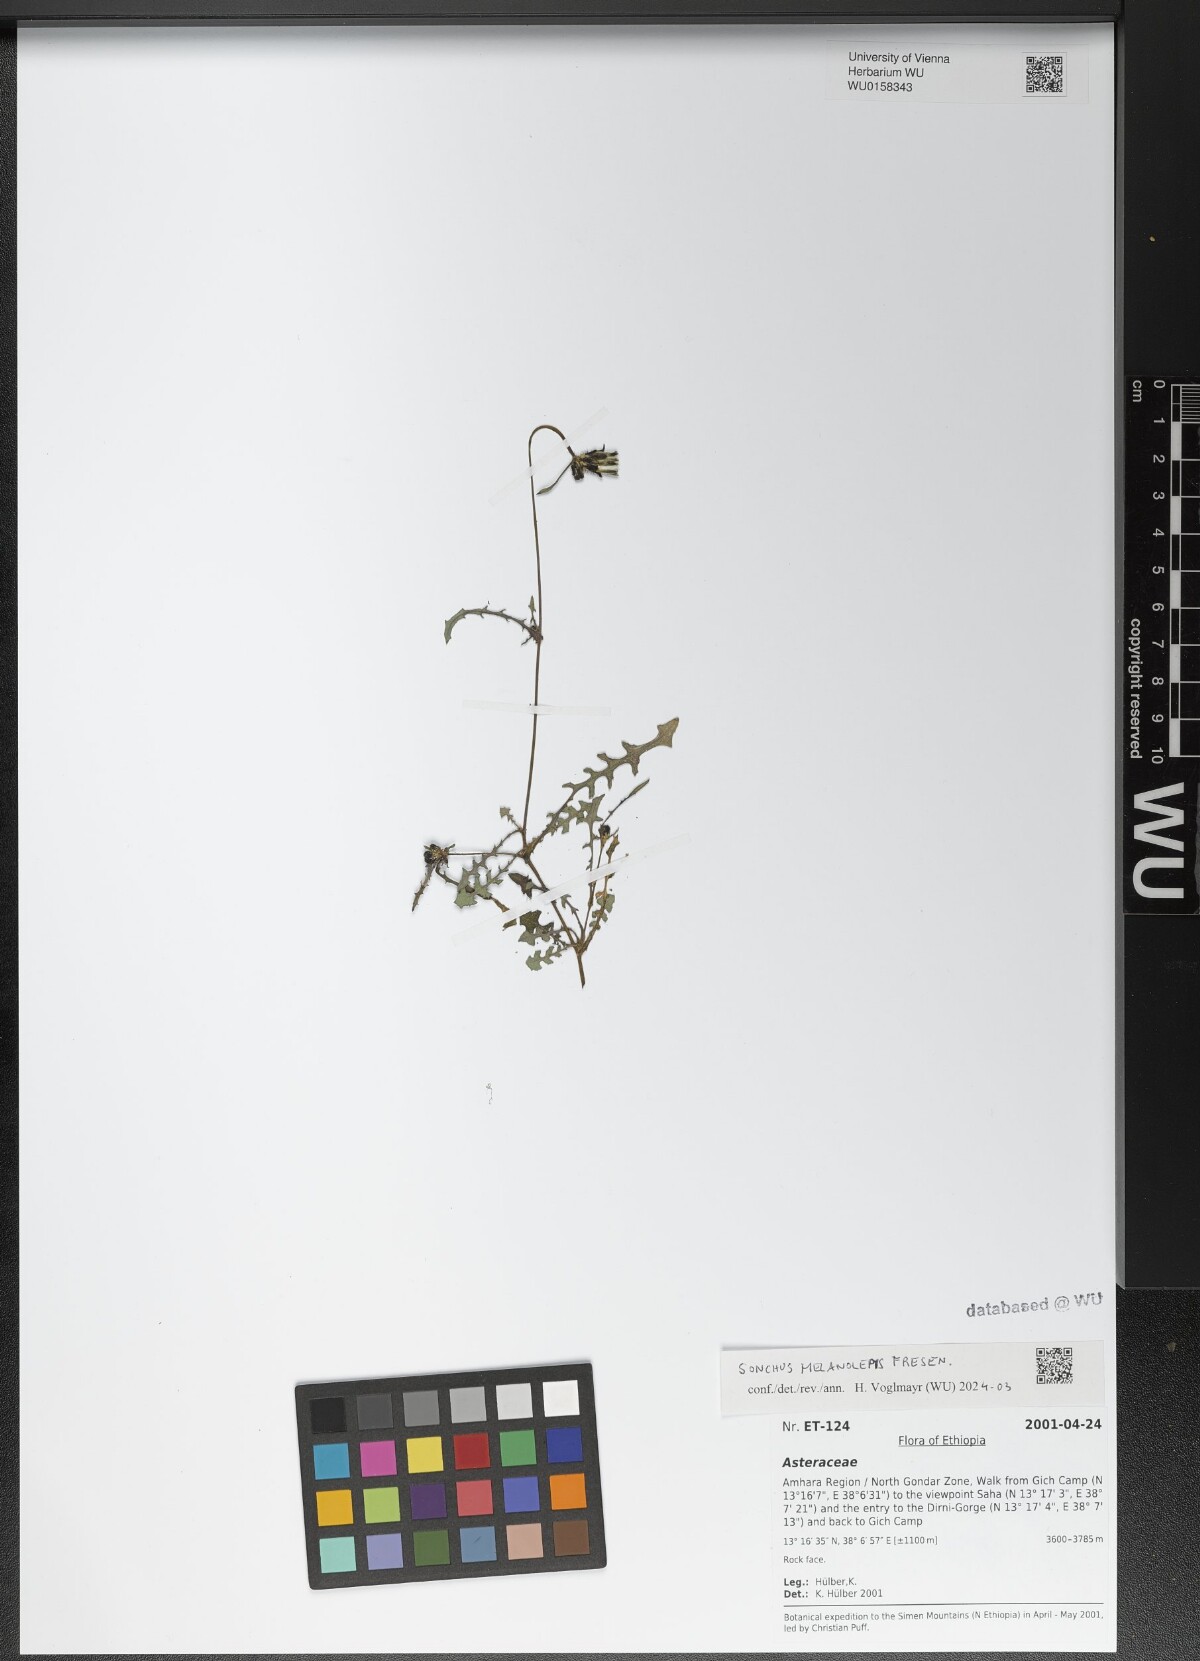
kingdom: Plantae
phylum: Tracheophyta
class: Magnoliopsida
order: Asterales
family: Asteraceae
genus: Sonchus
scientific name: Sonchus melanolepis
